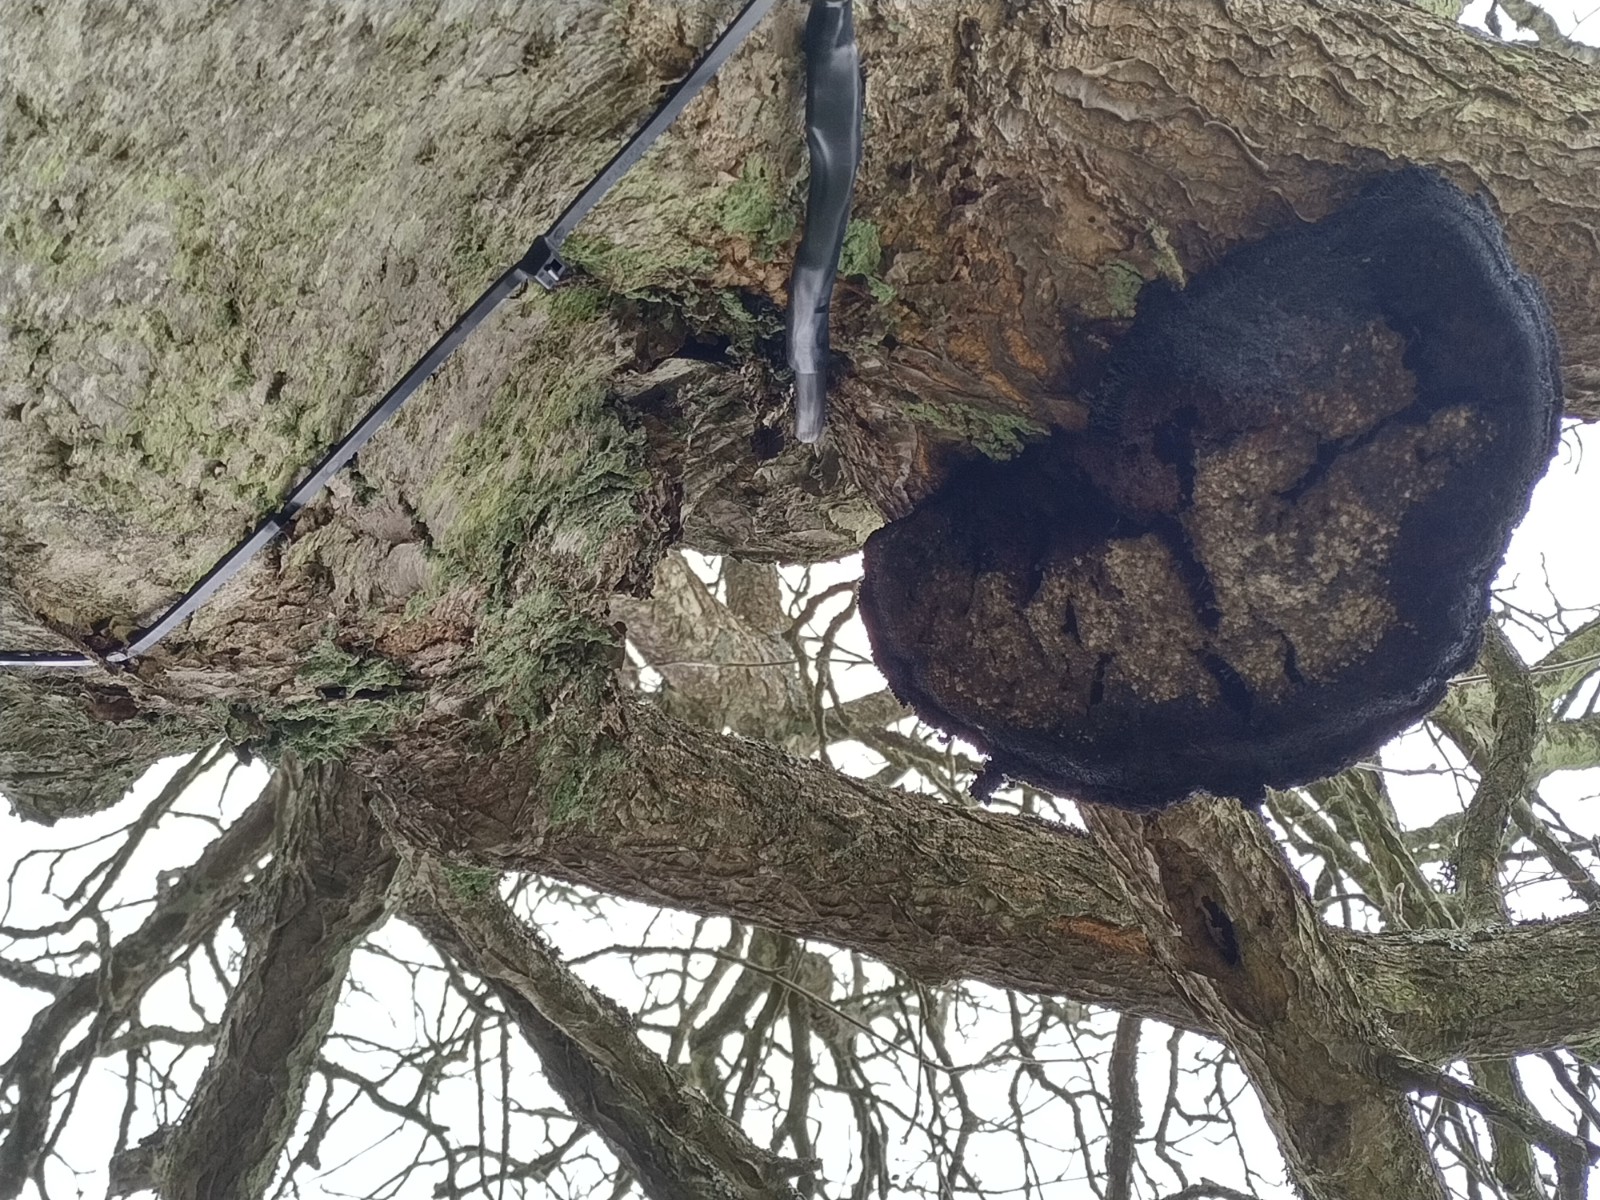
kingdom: Fungi
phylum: Basidiomycota
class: Agaricomycetes
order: Hymenochaetales
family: Hymenochaetaceae
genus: Inonotus
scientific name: Inonotus hispidus
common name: børstehåret spejlporesvamp
